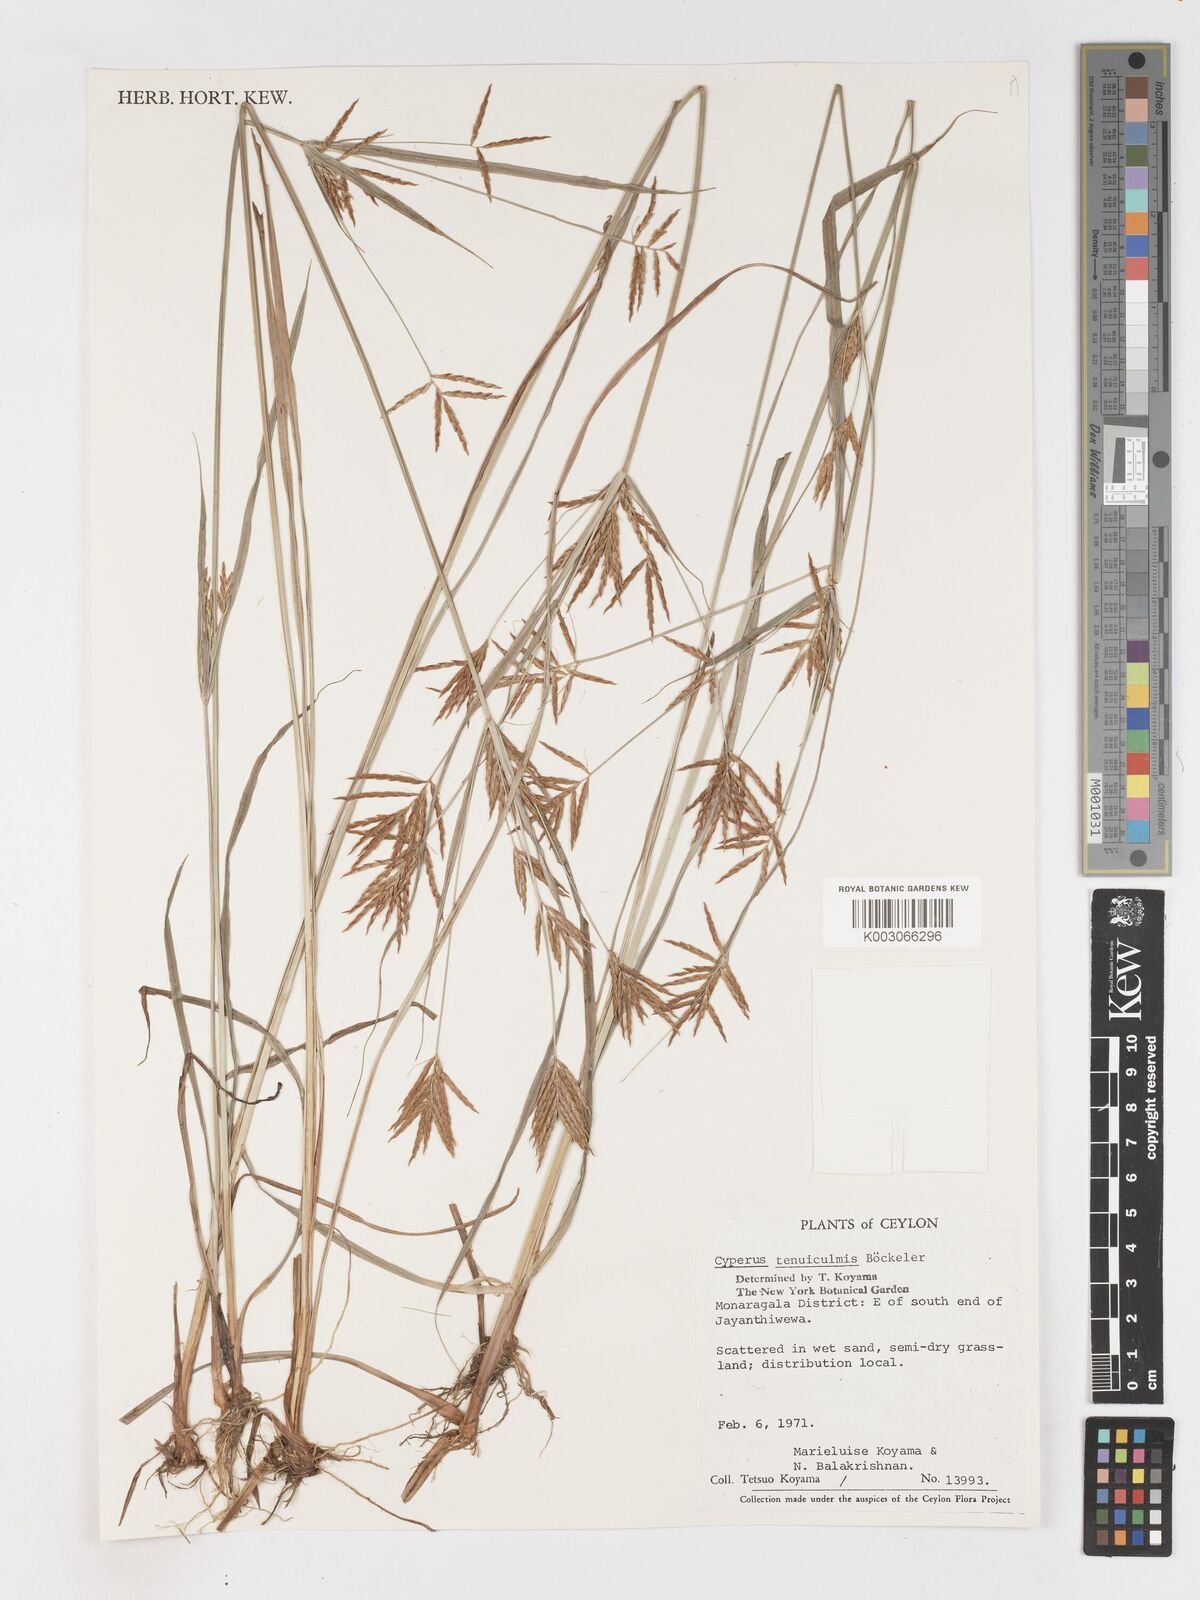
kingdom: Plantae
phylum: Tracheophyta
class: Liliopsida
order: Poales
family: Cyperaceae
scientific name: Cyperaceae
